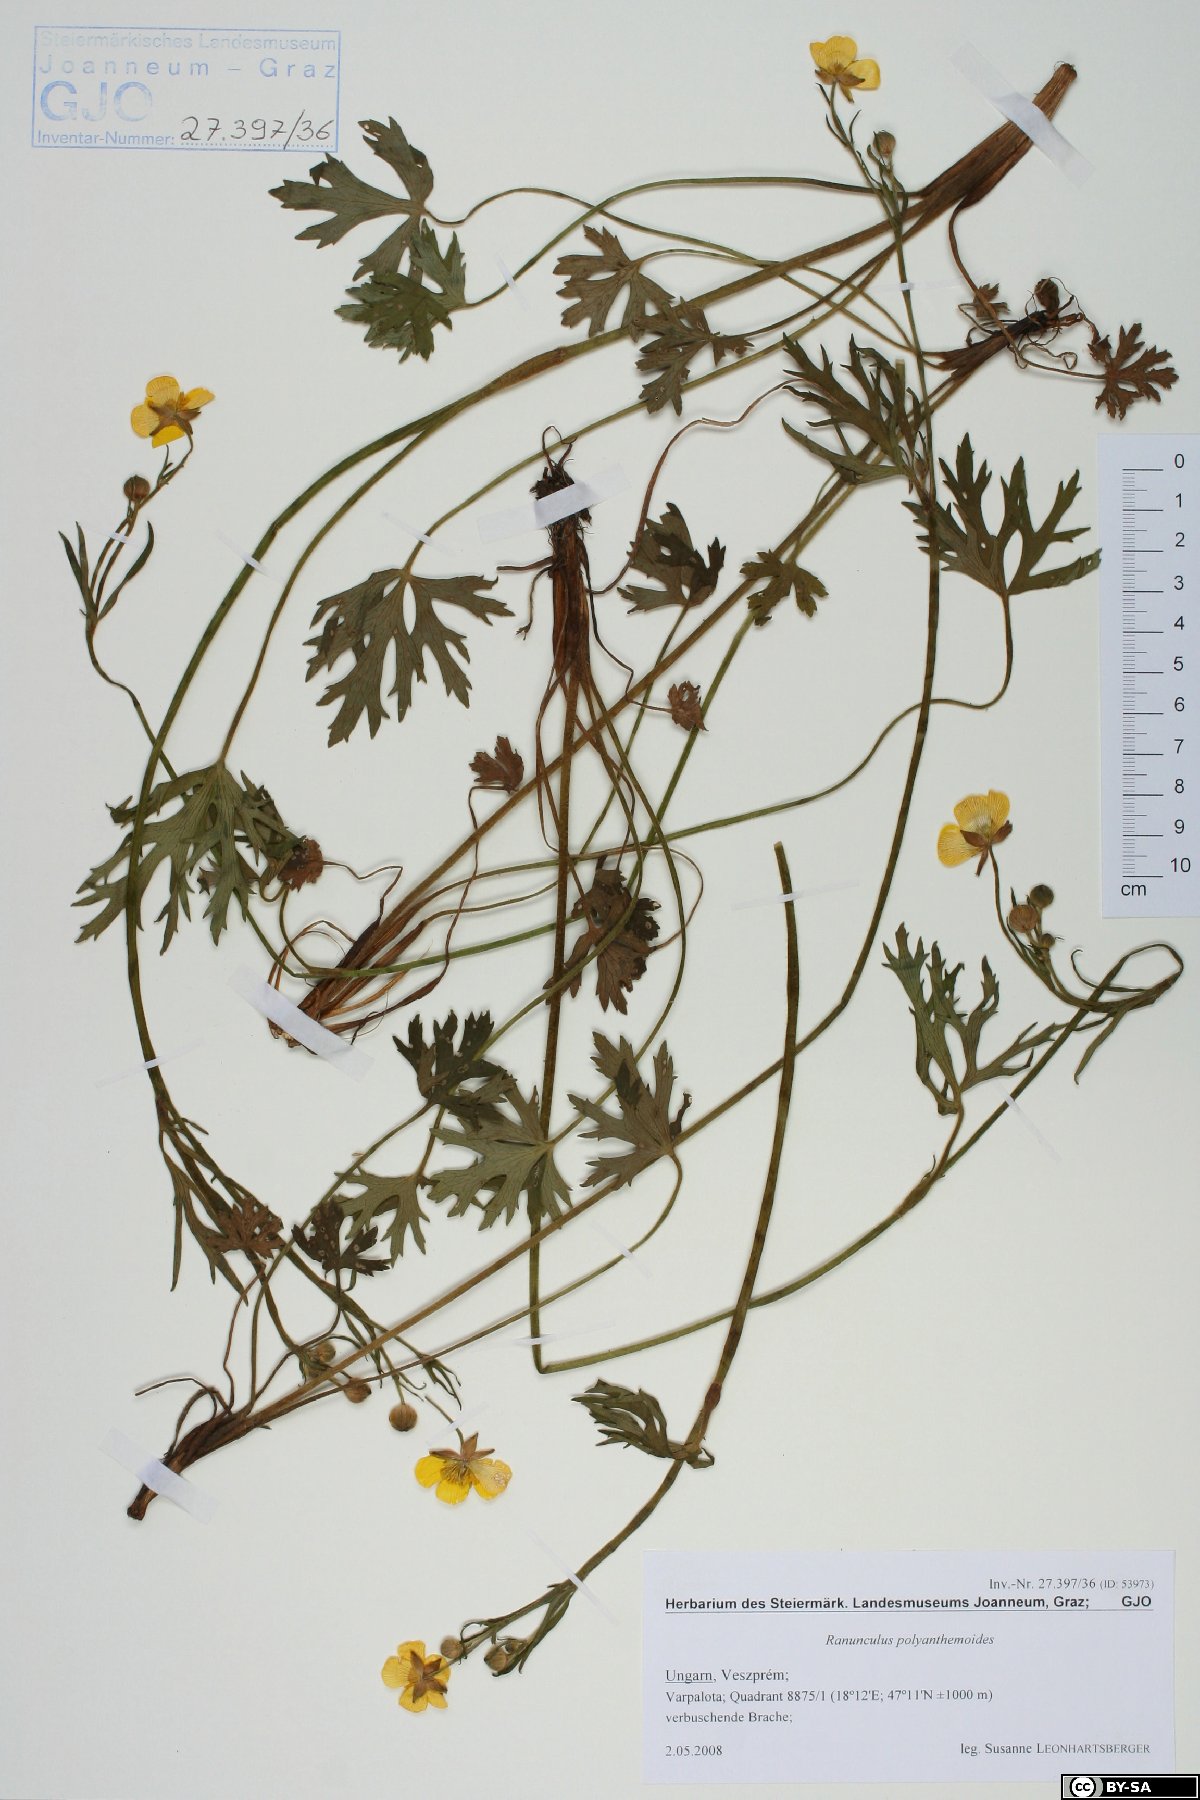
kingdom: Plantae
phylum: Tracheophyta
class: Magnoliopsida
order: Ranunculales
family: Ranunculaceae
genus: Ranunculus
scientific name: Ranunculus polyanthemos
